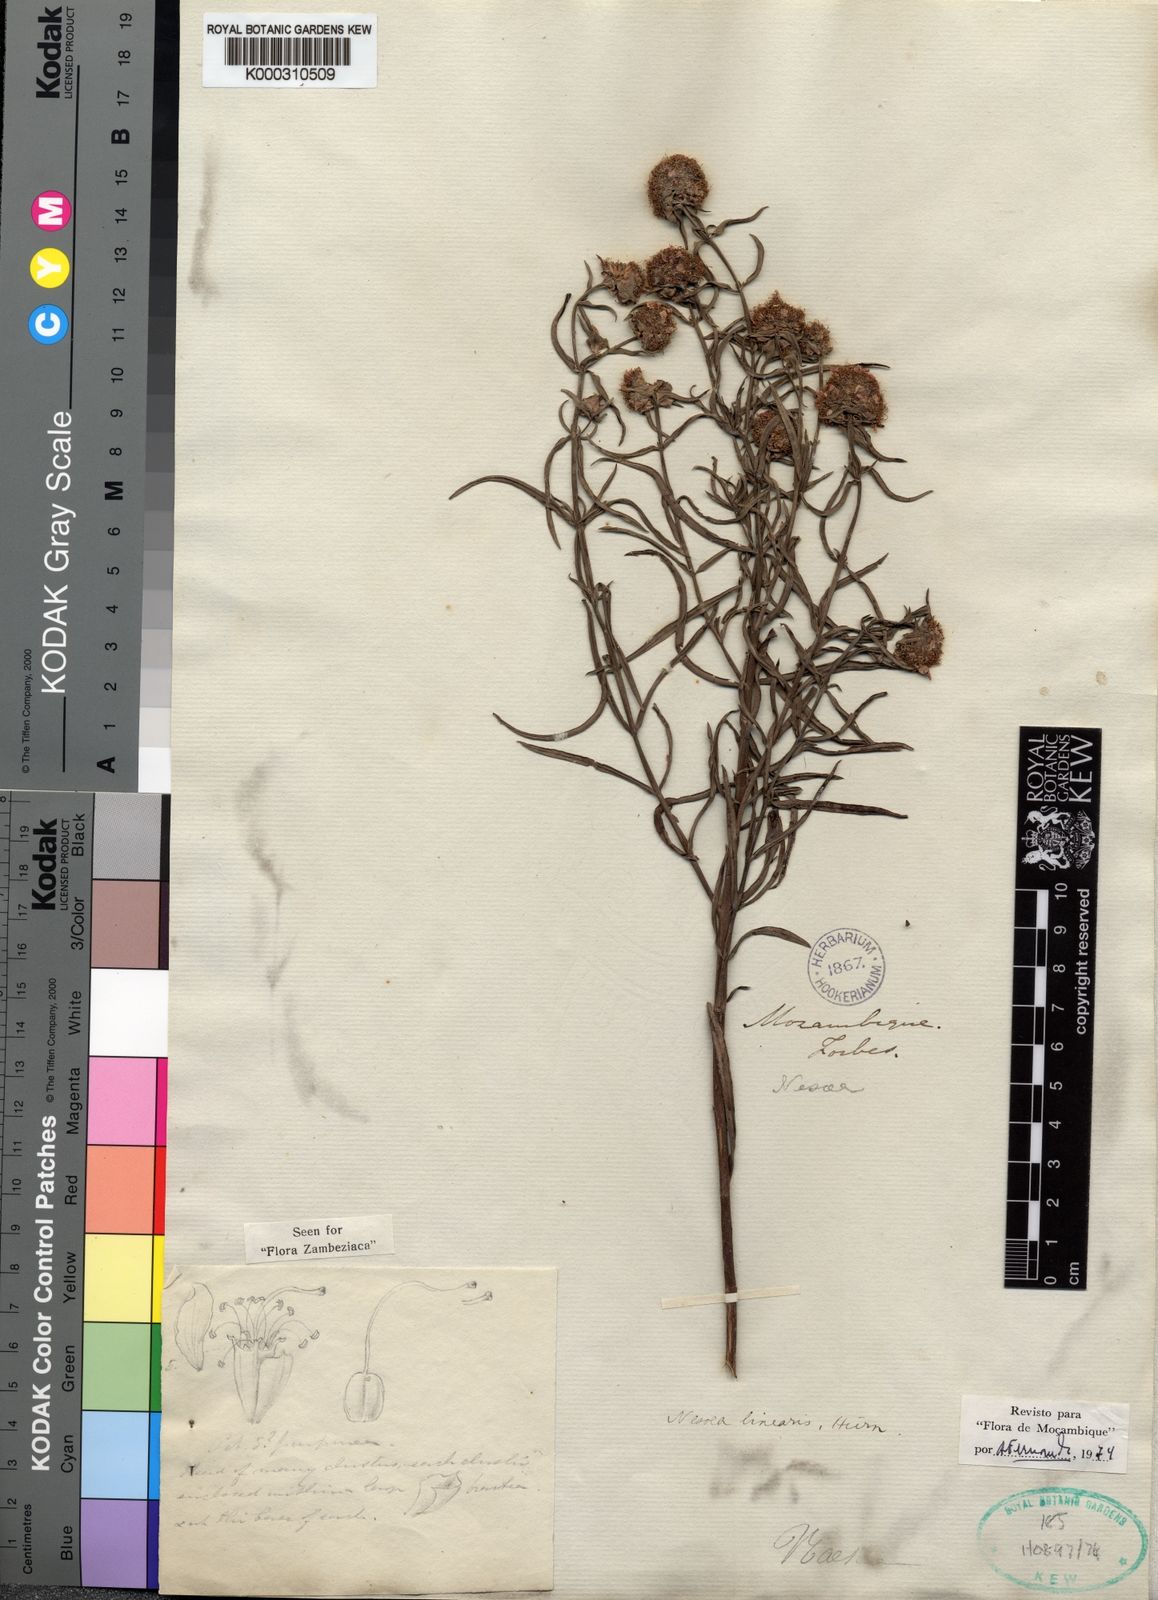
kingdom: Plantae
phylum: Tracheophyta
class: Magnoliopsida
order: Myrtales
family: Lythraceae
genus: Ammannia
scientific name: Ammannia linearis
